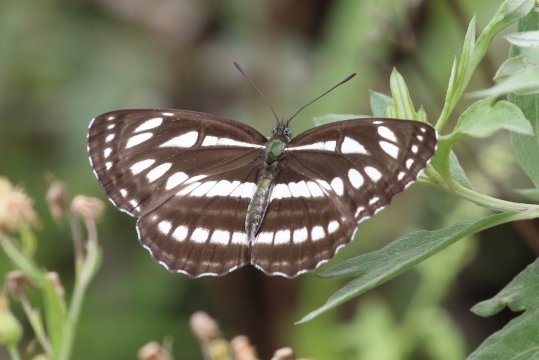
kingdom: Animalia
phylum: Arthropoda
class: Insecta
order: Lepidoptera
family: Nymphalidae
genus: Neptis
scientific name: Neptis sappho
